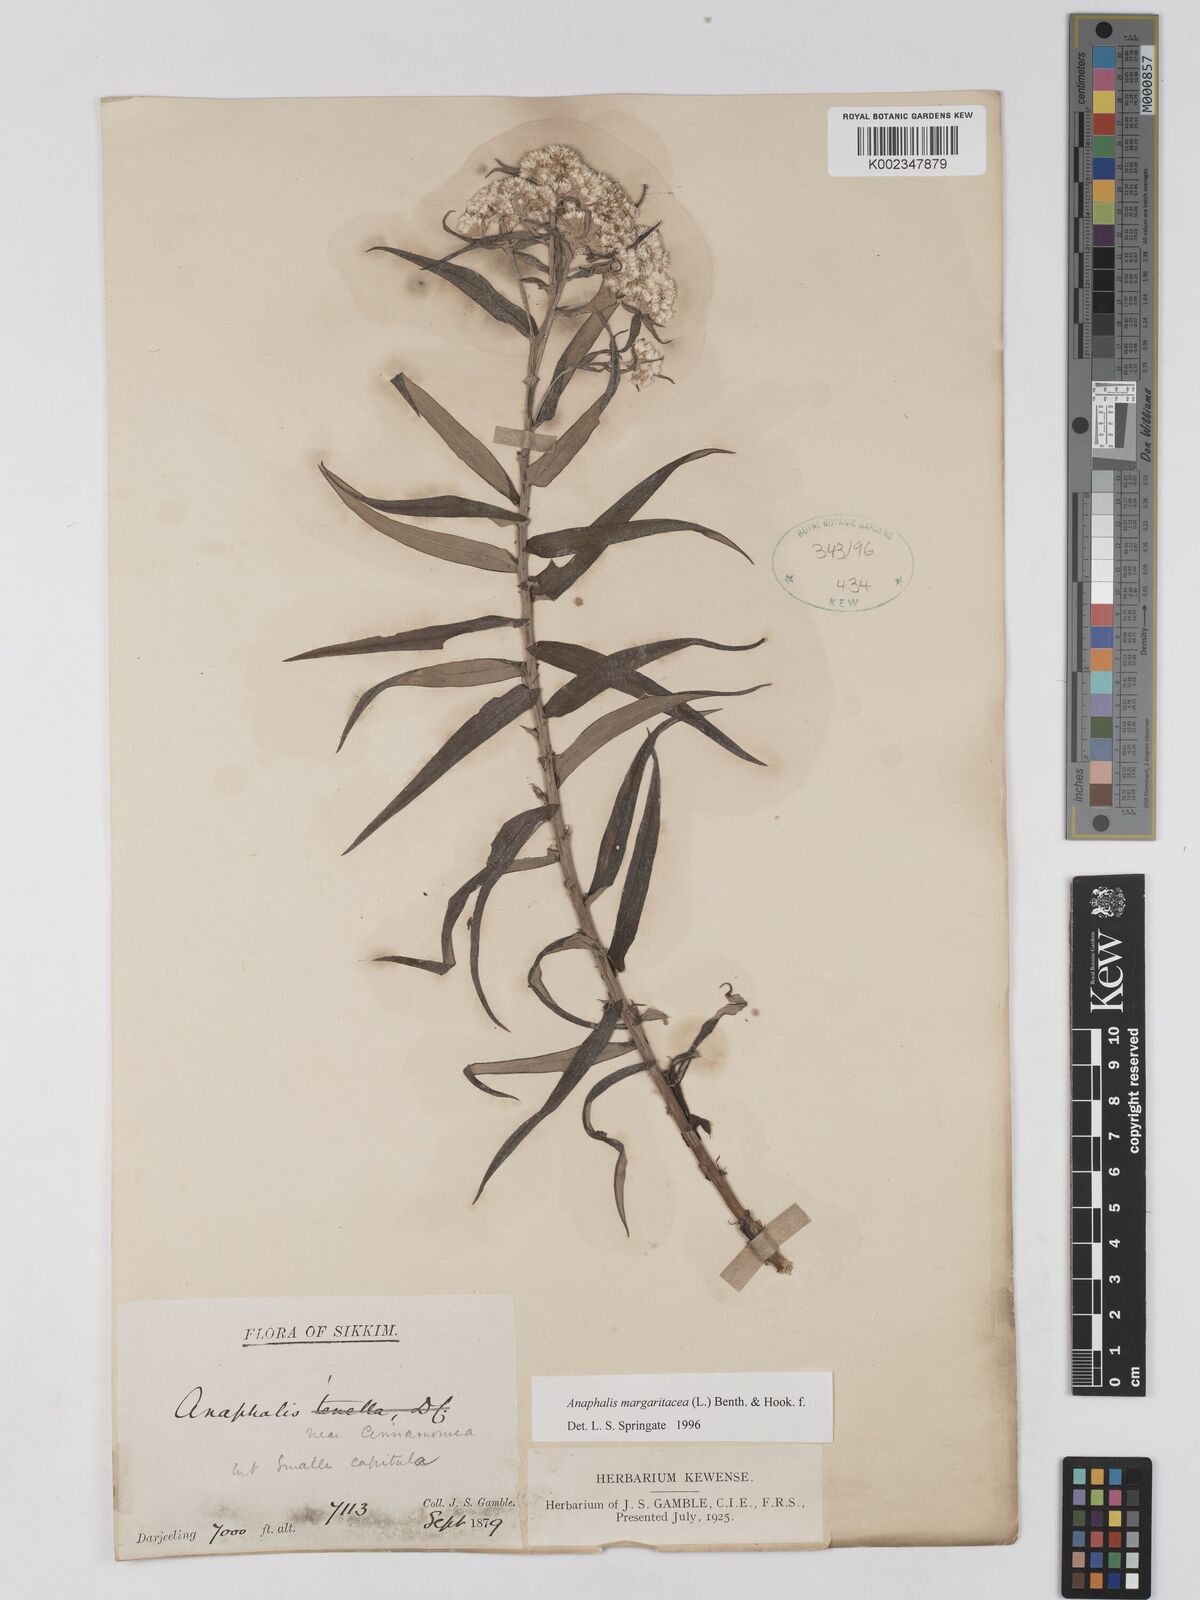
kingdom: Plantae
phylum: Tracheophyta
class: Magnoliopsida
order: Asterales
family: Asteraceae
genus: Anaphalis
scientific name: Anaphalis margaritacea
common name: Pearly everlasting
